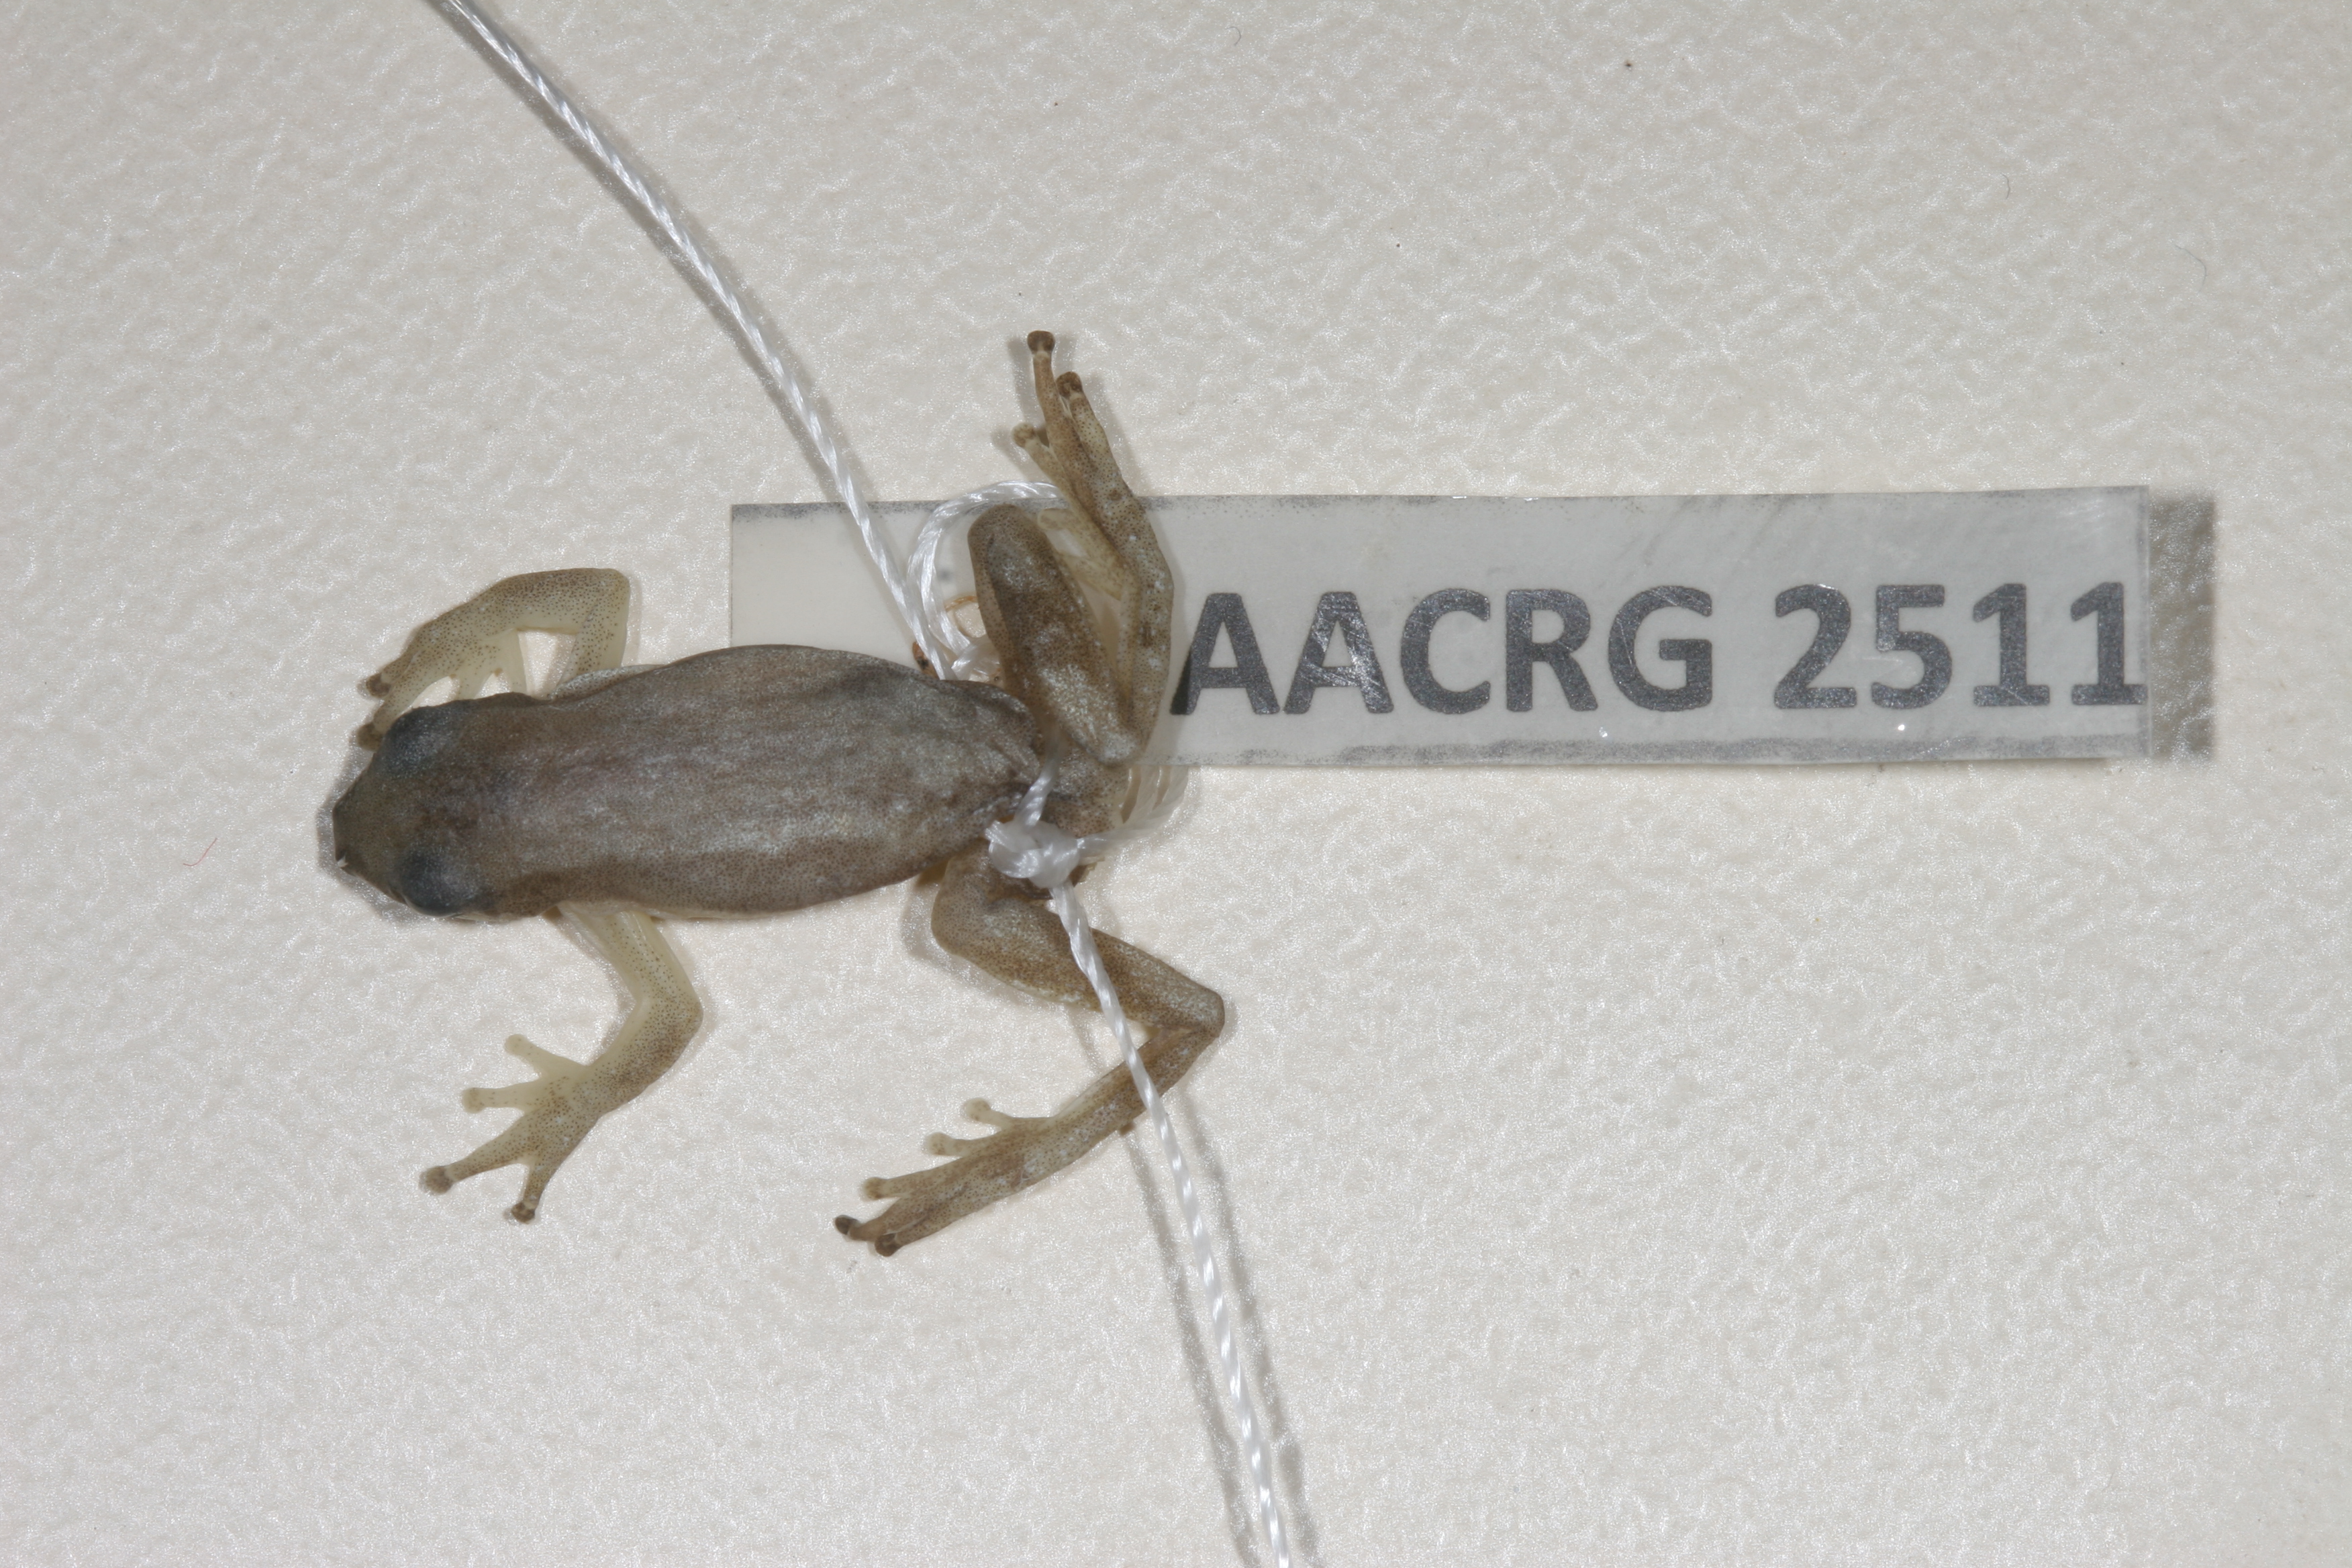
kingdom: Animalia
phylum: Chordata
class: Amphibia
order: Anura
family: Hyperoliidae
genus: Afrixalus
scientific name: Afrixalus aureus
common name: Golden banana frog
